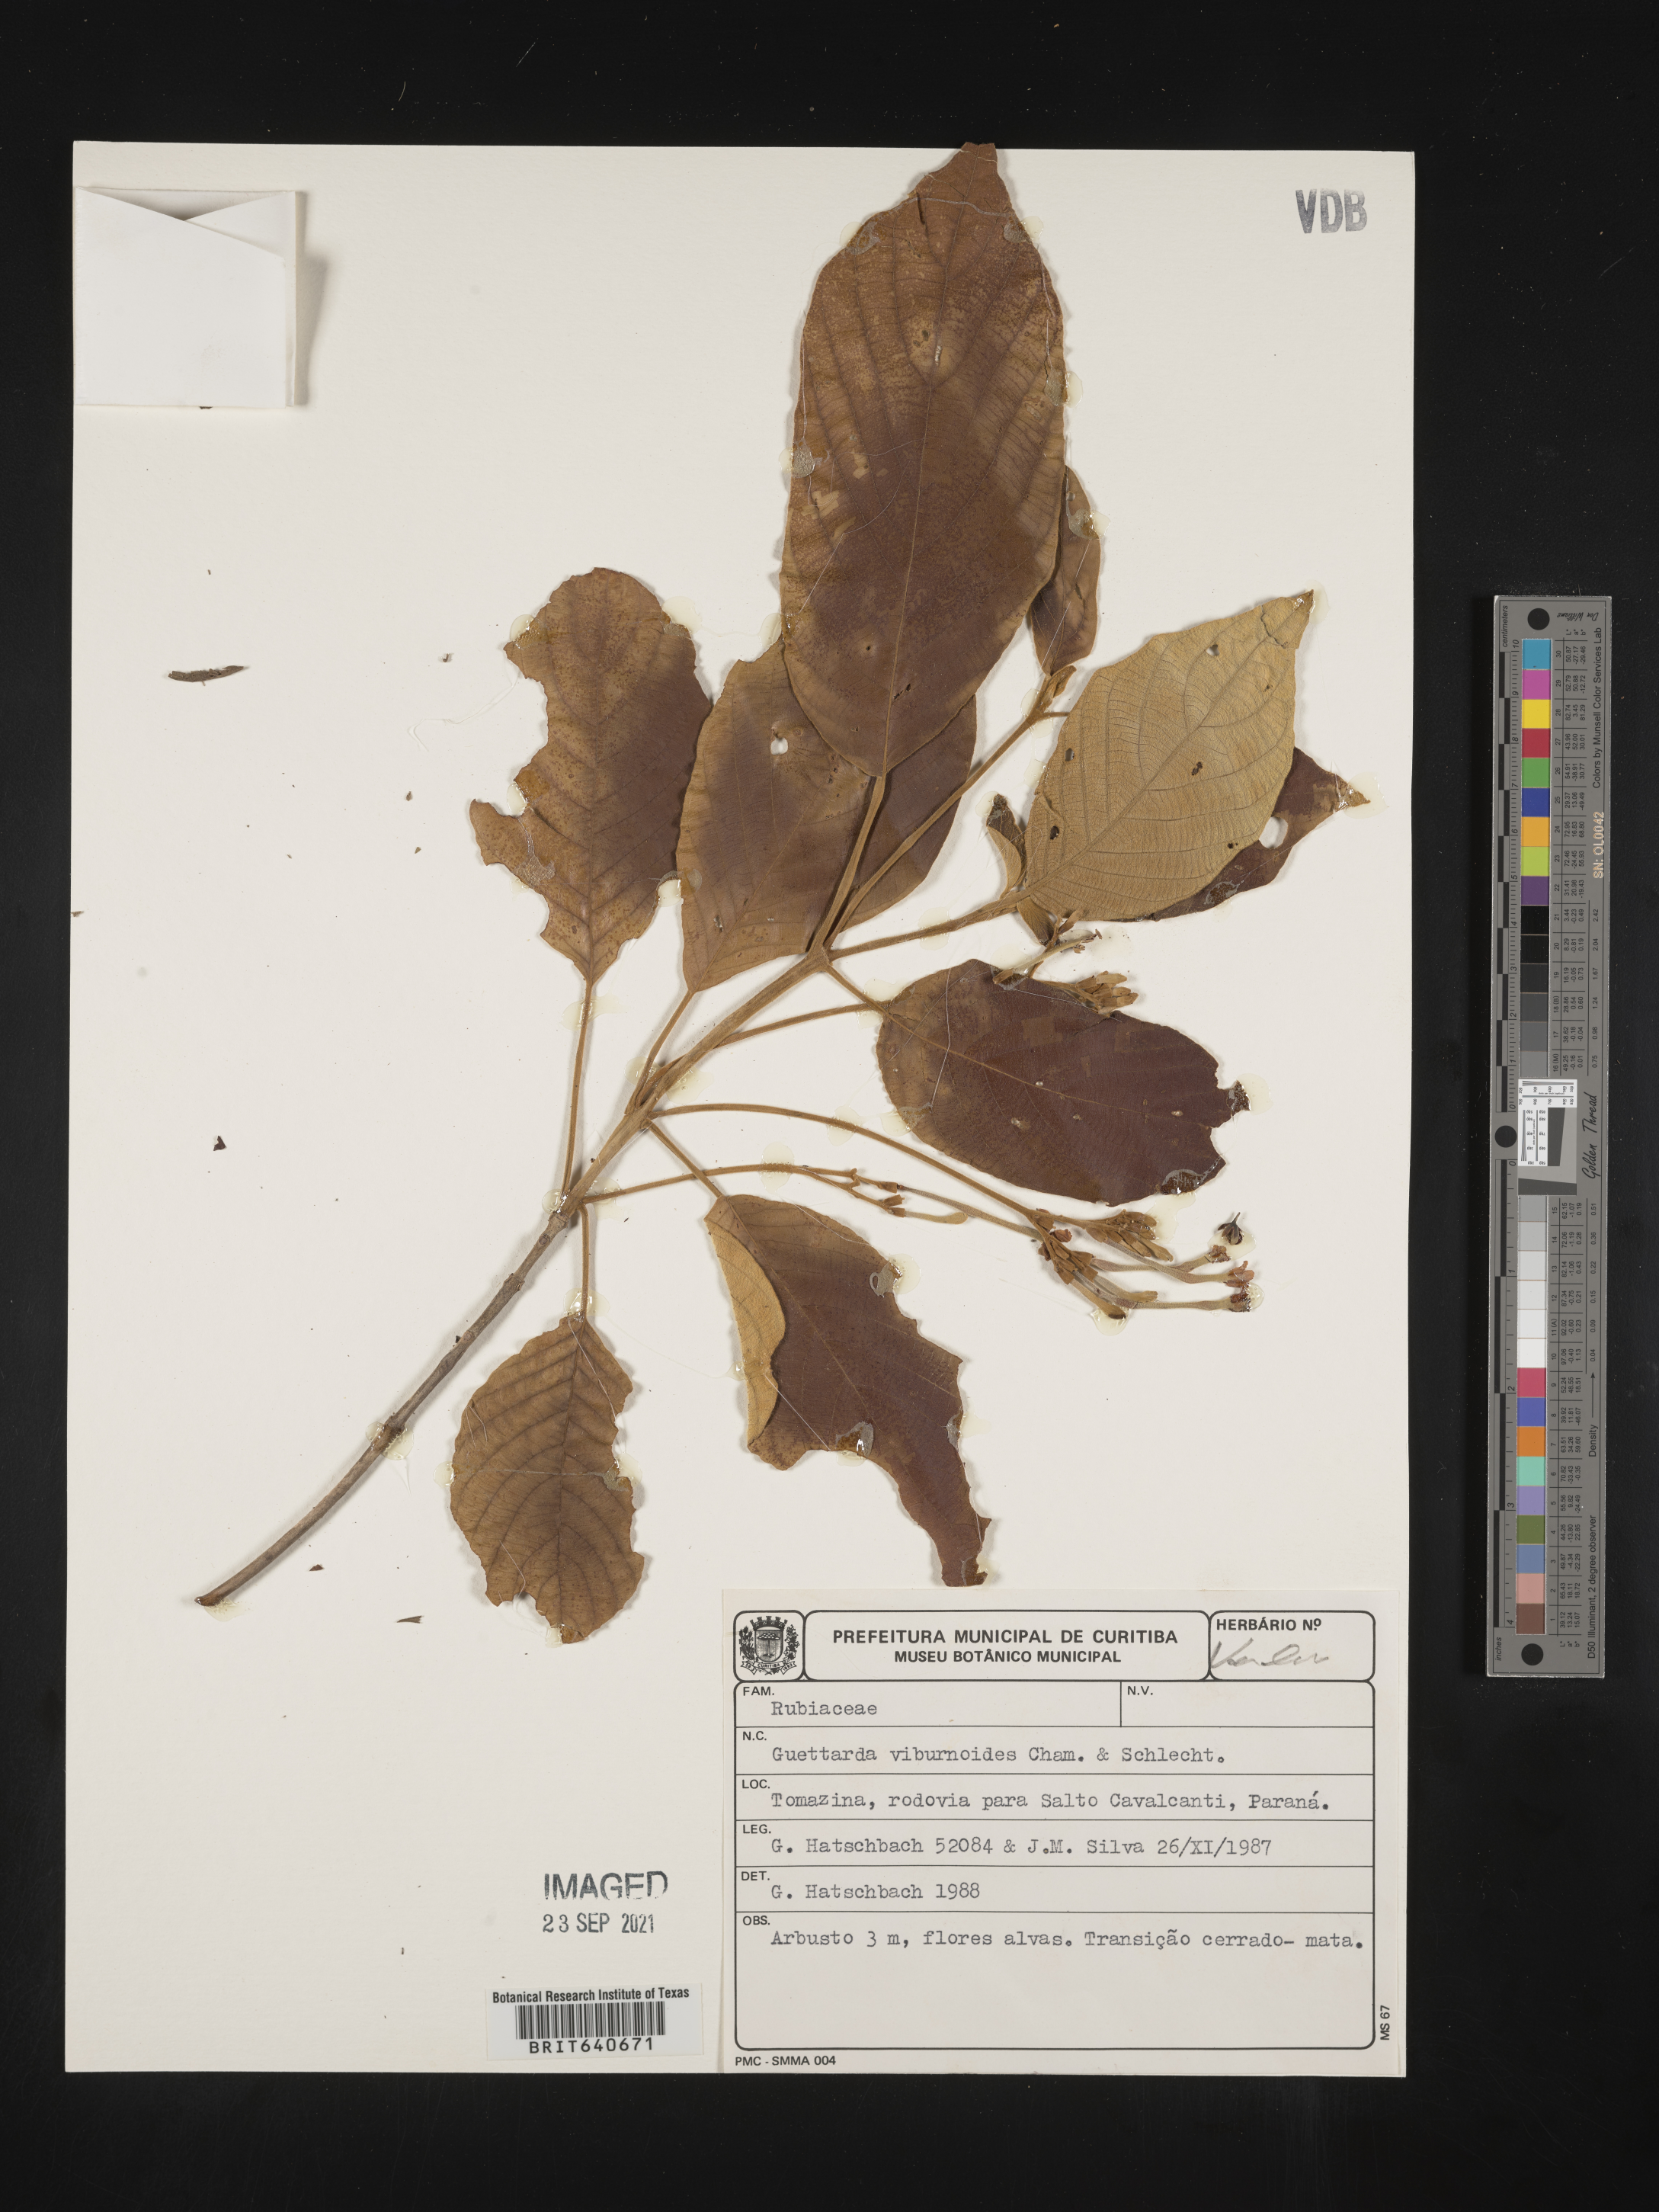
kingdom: Plantae
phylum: Tracheophyta
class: Magnoliopsida
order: Gentianales
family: Rubiaceae
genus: Guettarda
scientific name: Guettarda
